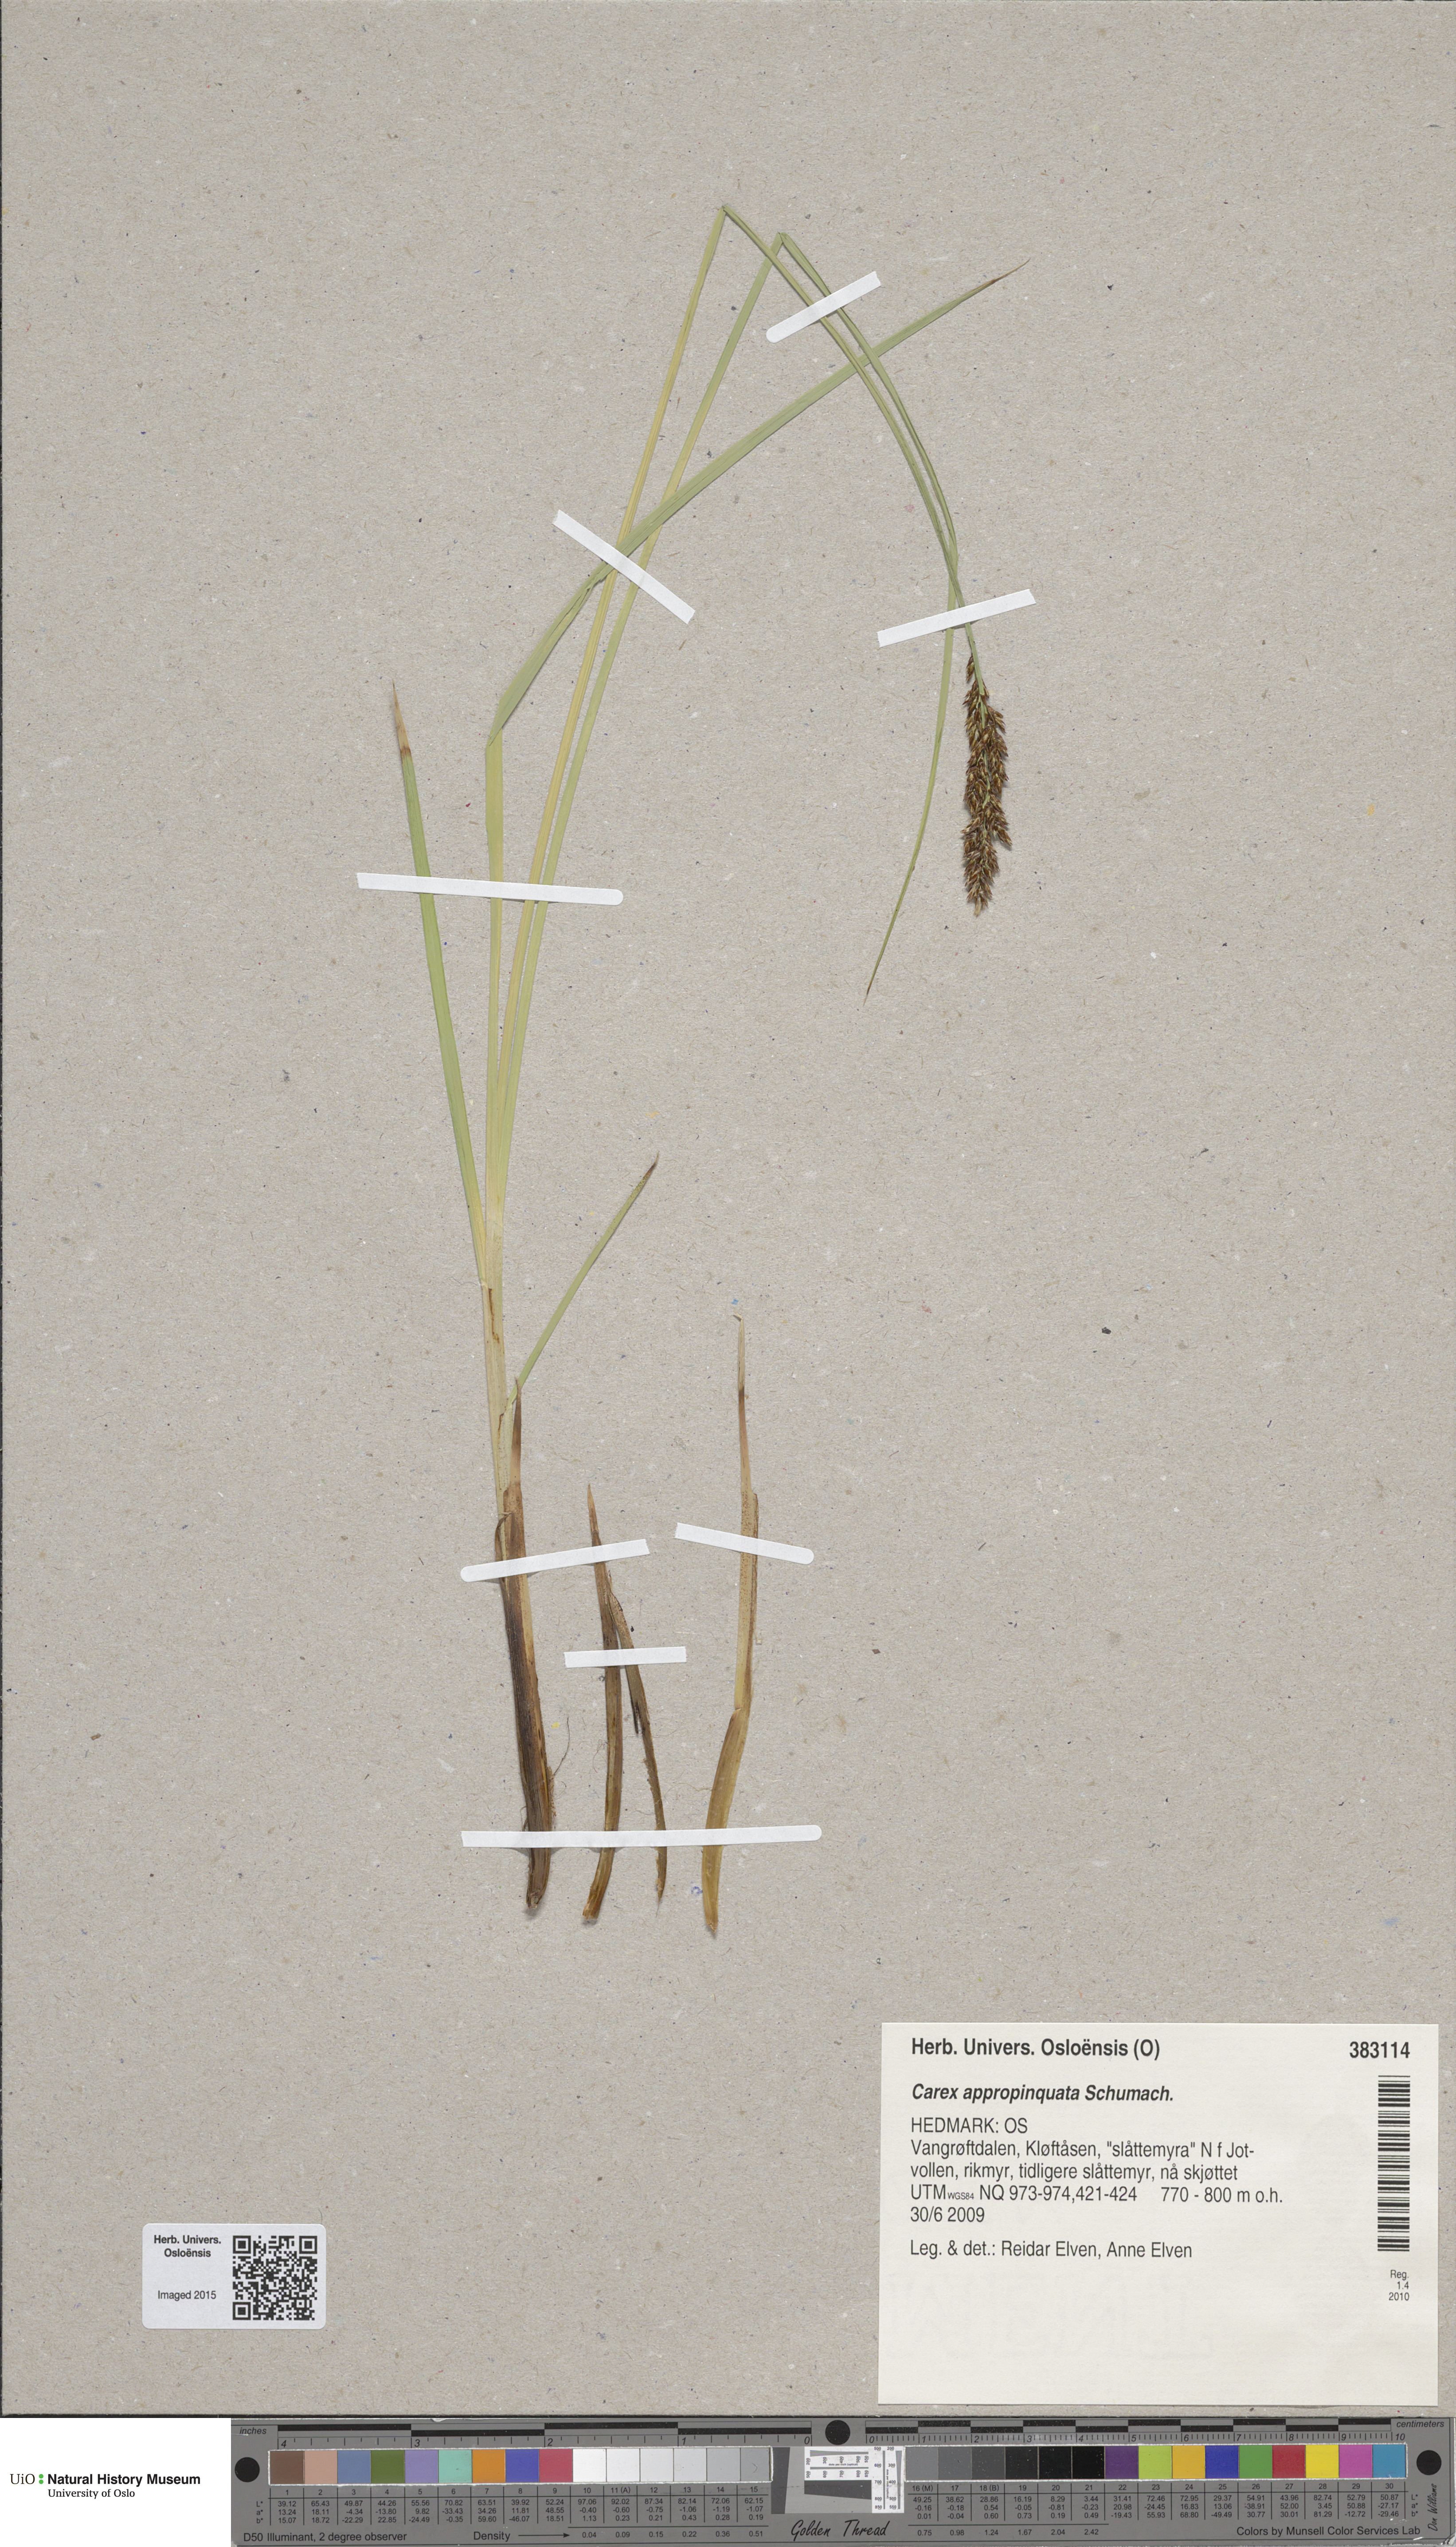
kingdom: Plantae
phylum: Tracheophyta
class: Liliopsida
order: Poales
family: Cyperaceae
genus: Carex
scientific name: Carex appropinquata
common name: Fibrous tussock-sedge
